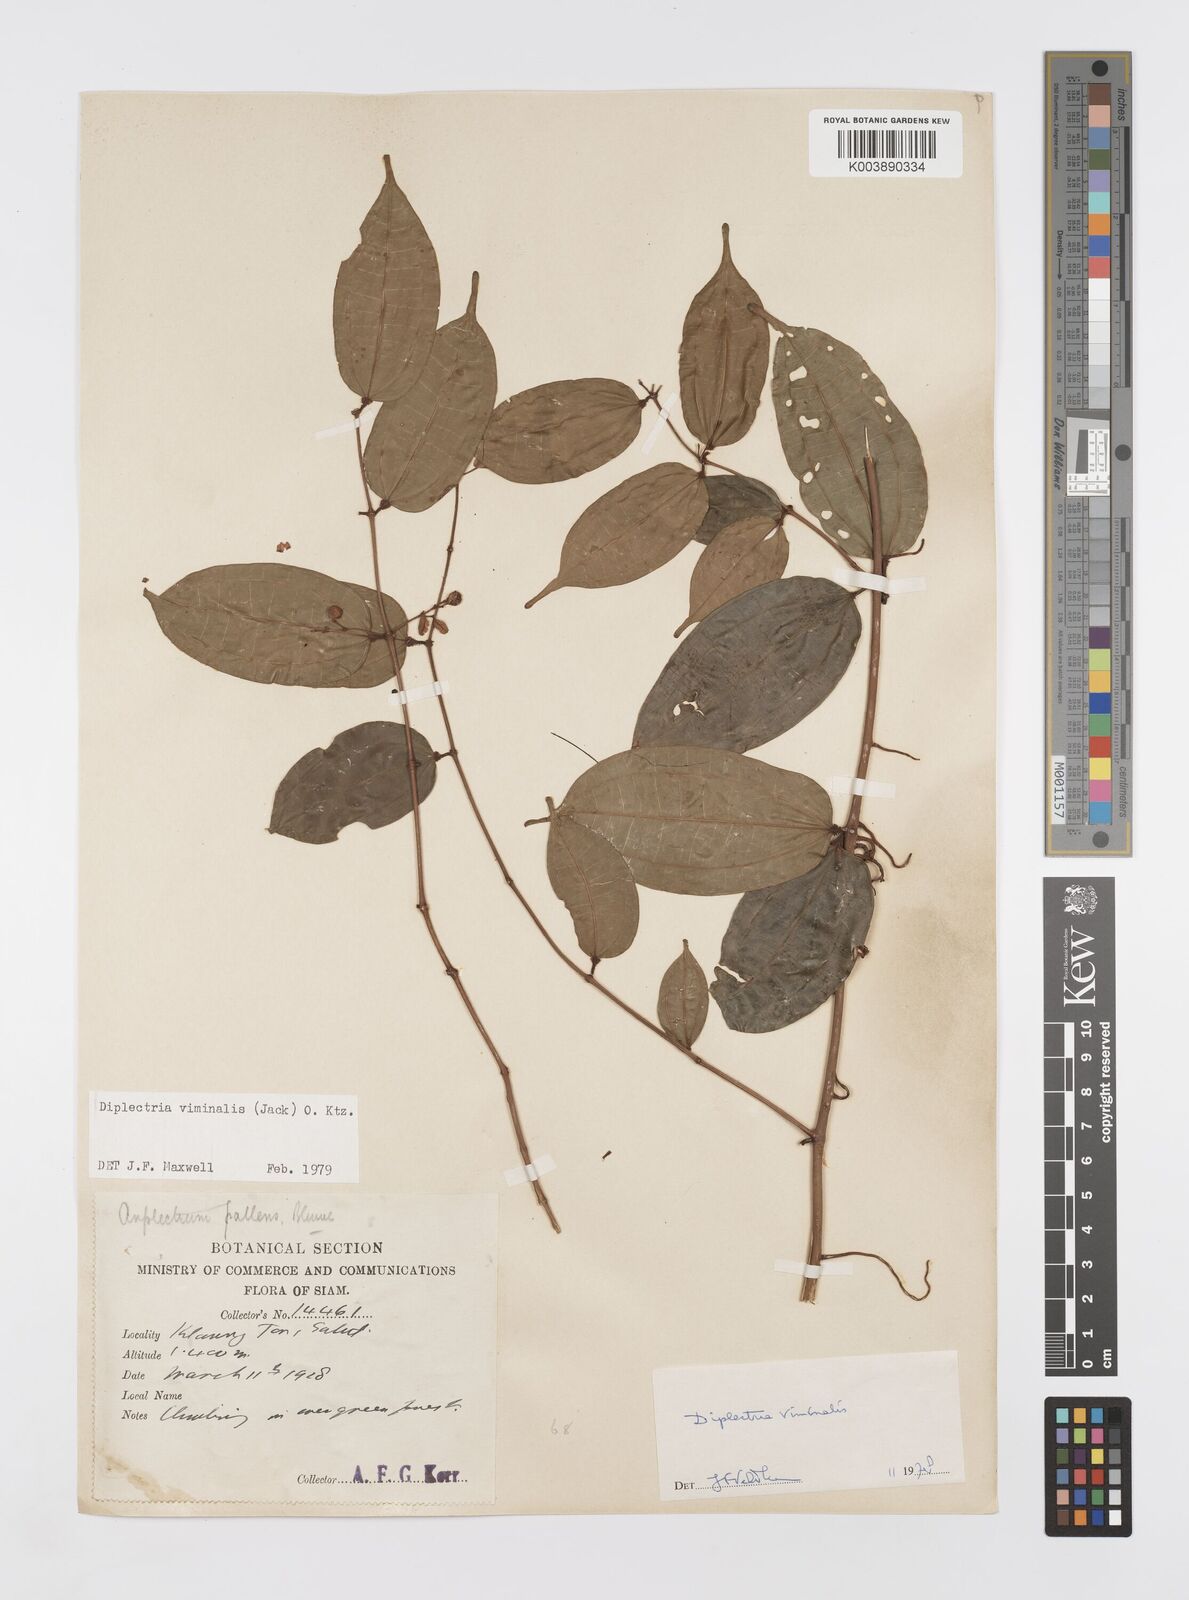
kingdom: Plantae
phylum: Tracheophyta
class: Magnoliopsida
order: Myrtales
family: Melastomataceae
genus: Diplectria
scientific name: Diplectria viminalis
